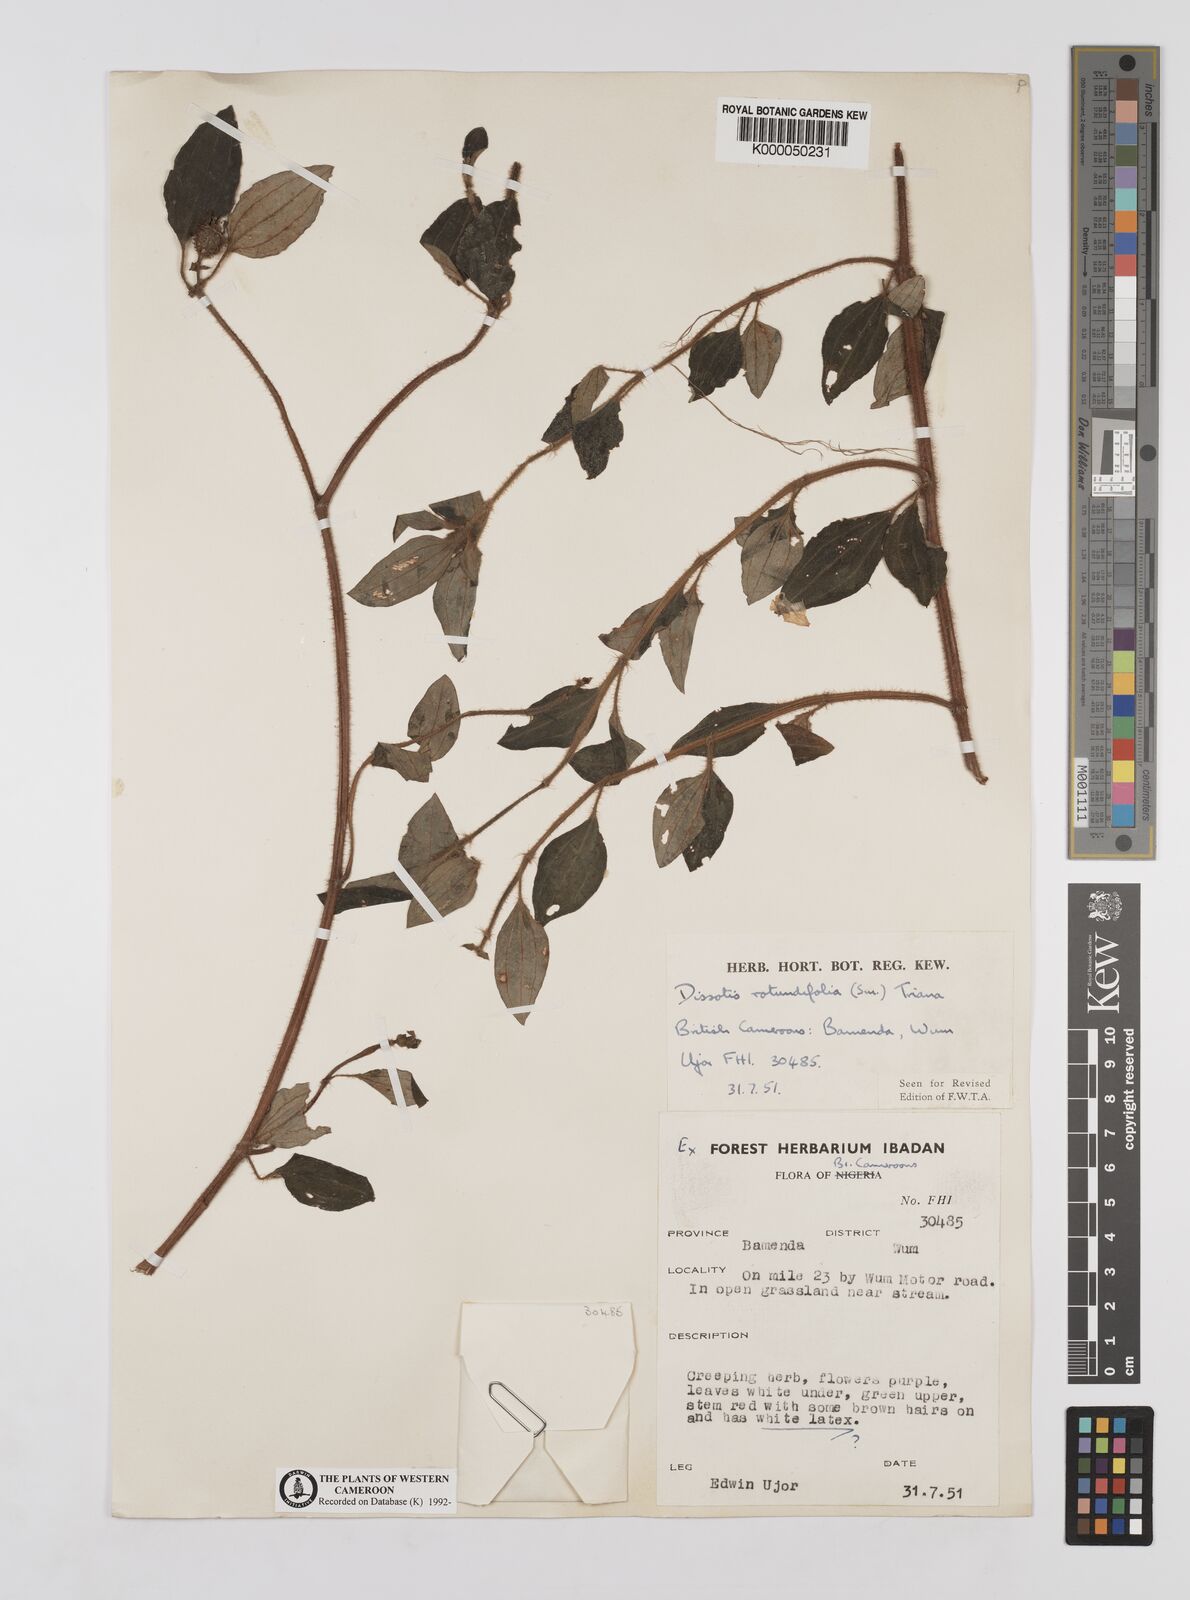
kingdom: Plantae
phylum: Tracheophyta
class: Magnoliopsida
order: Myrtales
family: Melastomataceae
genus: Heterotis
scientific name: Heterotis rotundifolia
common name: Pinklady
